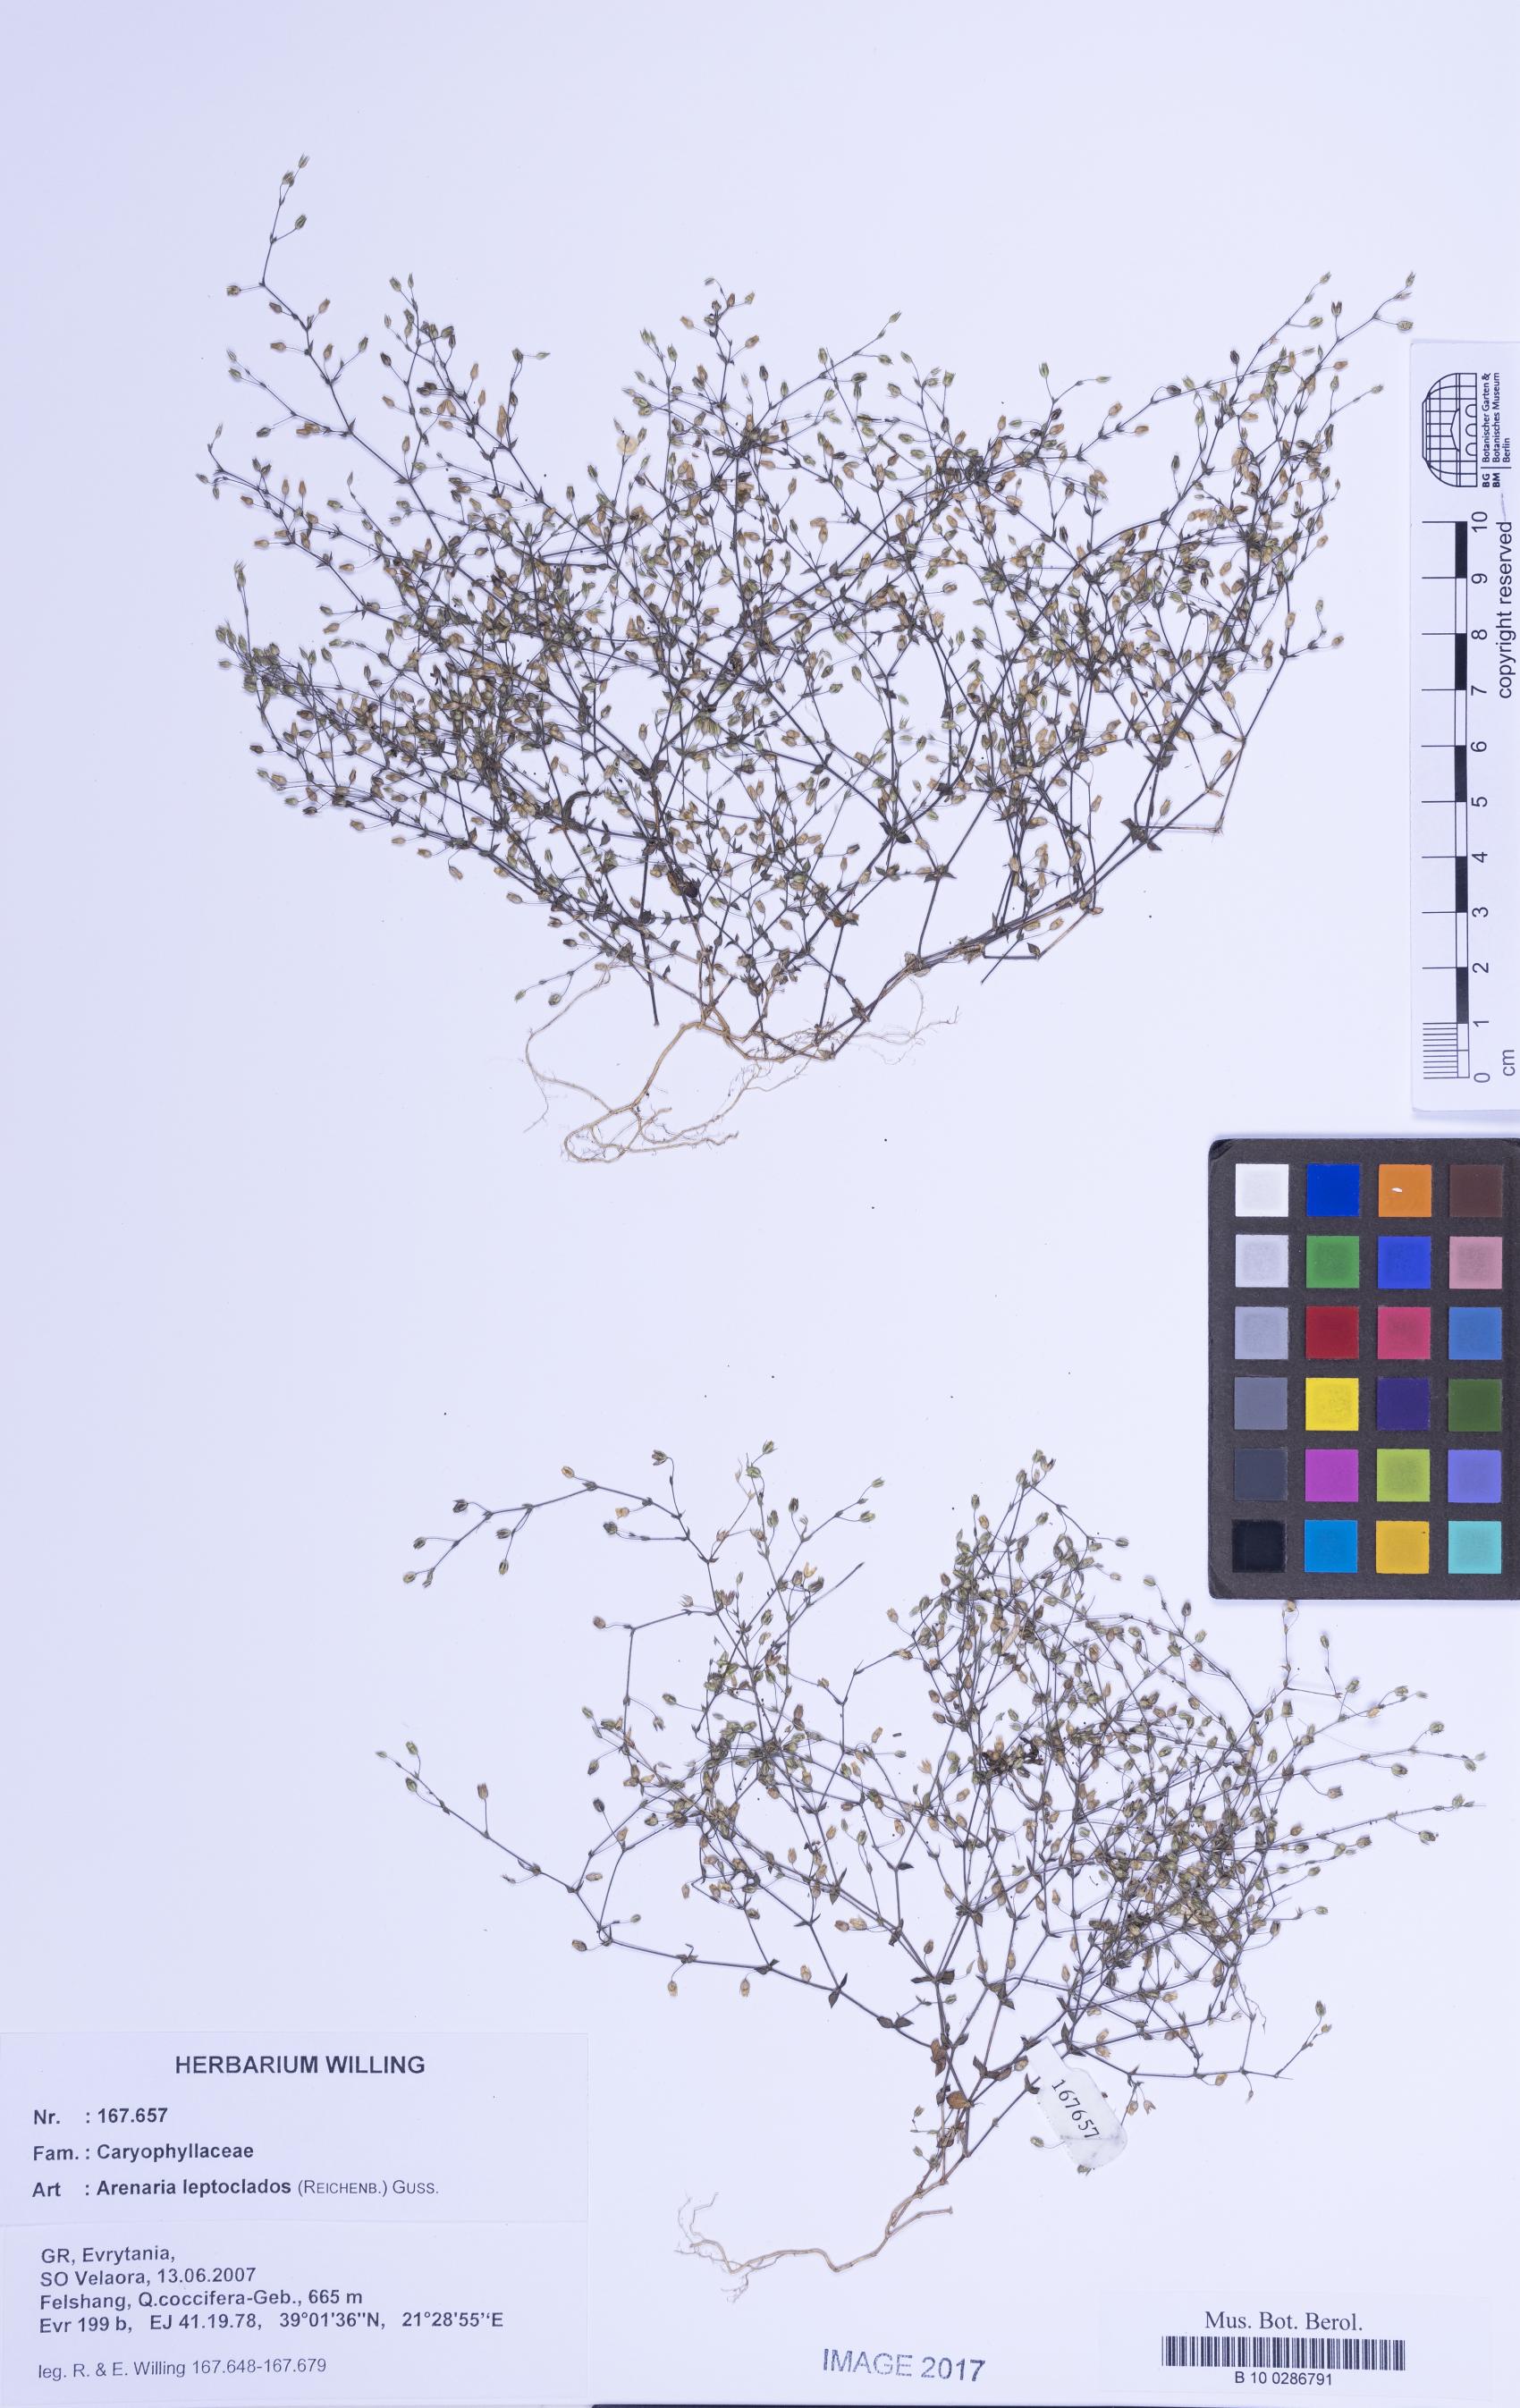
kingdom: Plantae
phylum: Tracheophyta
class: Magnoliopsida
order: Caryophyllales
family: Caryophyllaceae
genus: Arenaria
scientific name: Arenaria leptoclados
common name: Thyme-leaved sandwort
